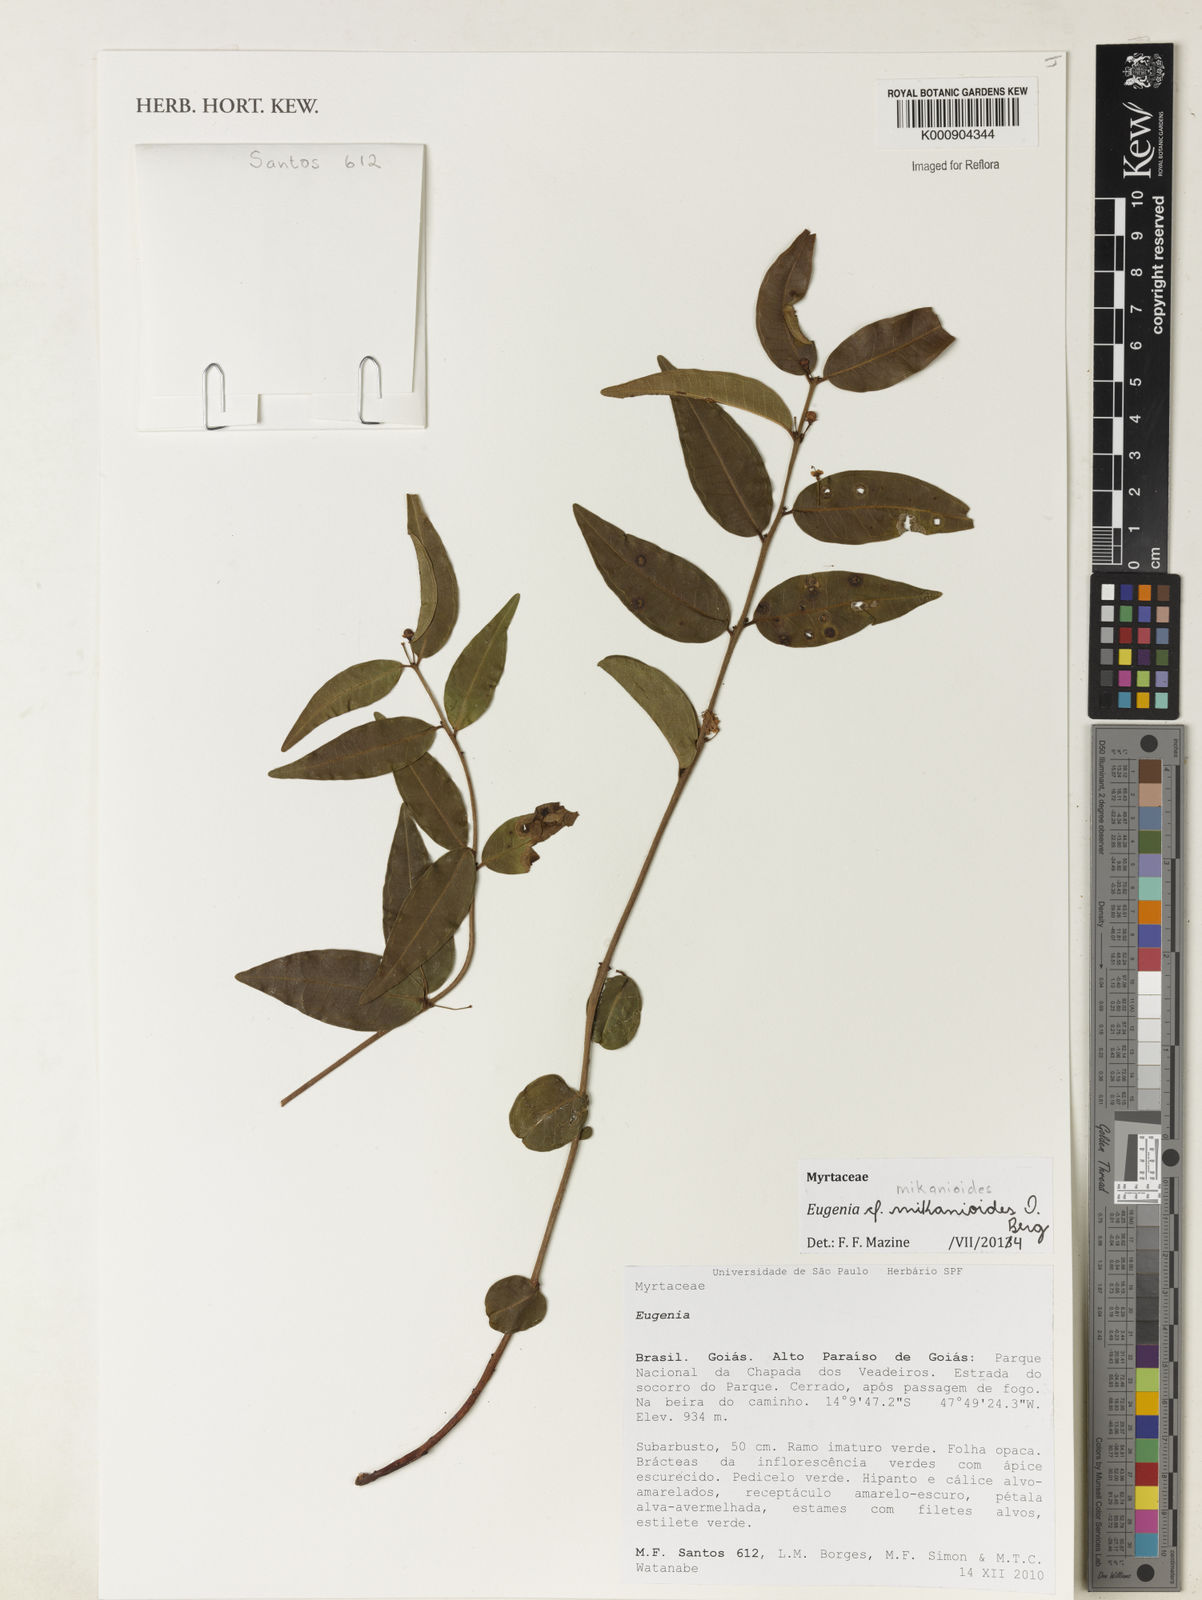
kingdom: Plantae
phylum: Tracheophyta
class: Magnoliopsida
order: Myrtales
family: Myrtaceae
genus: Eugenia
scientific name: Eugenia candolleana
